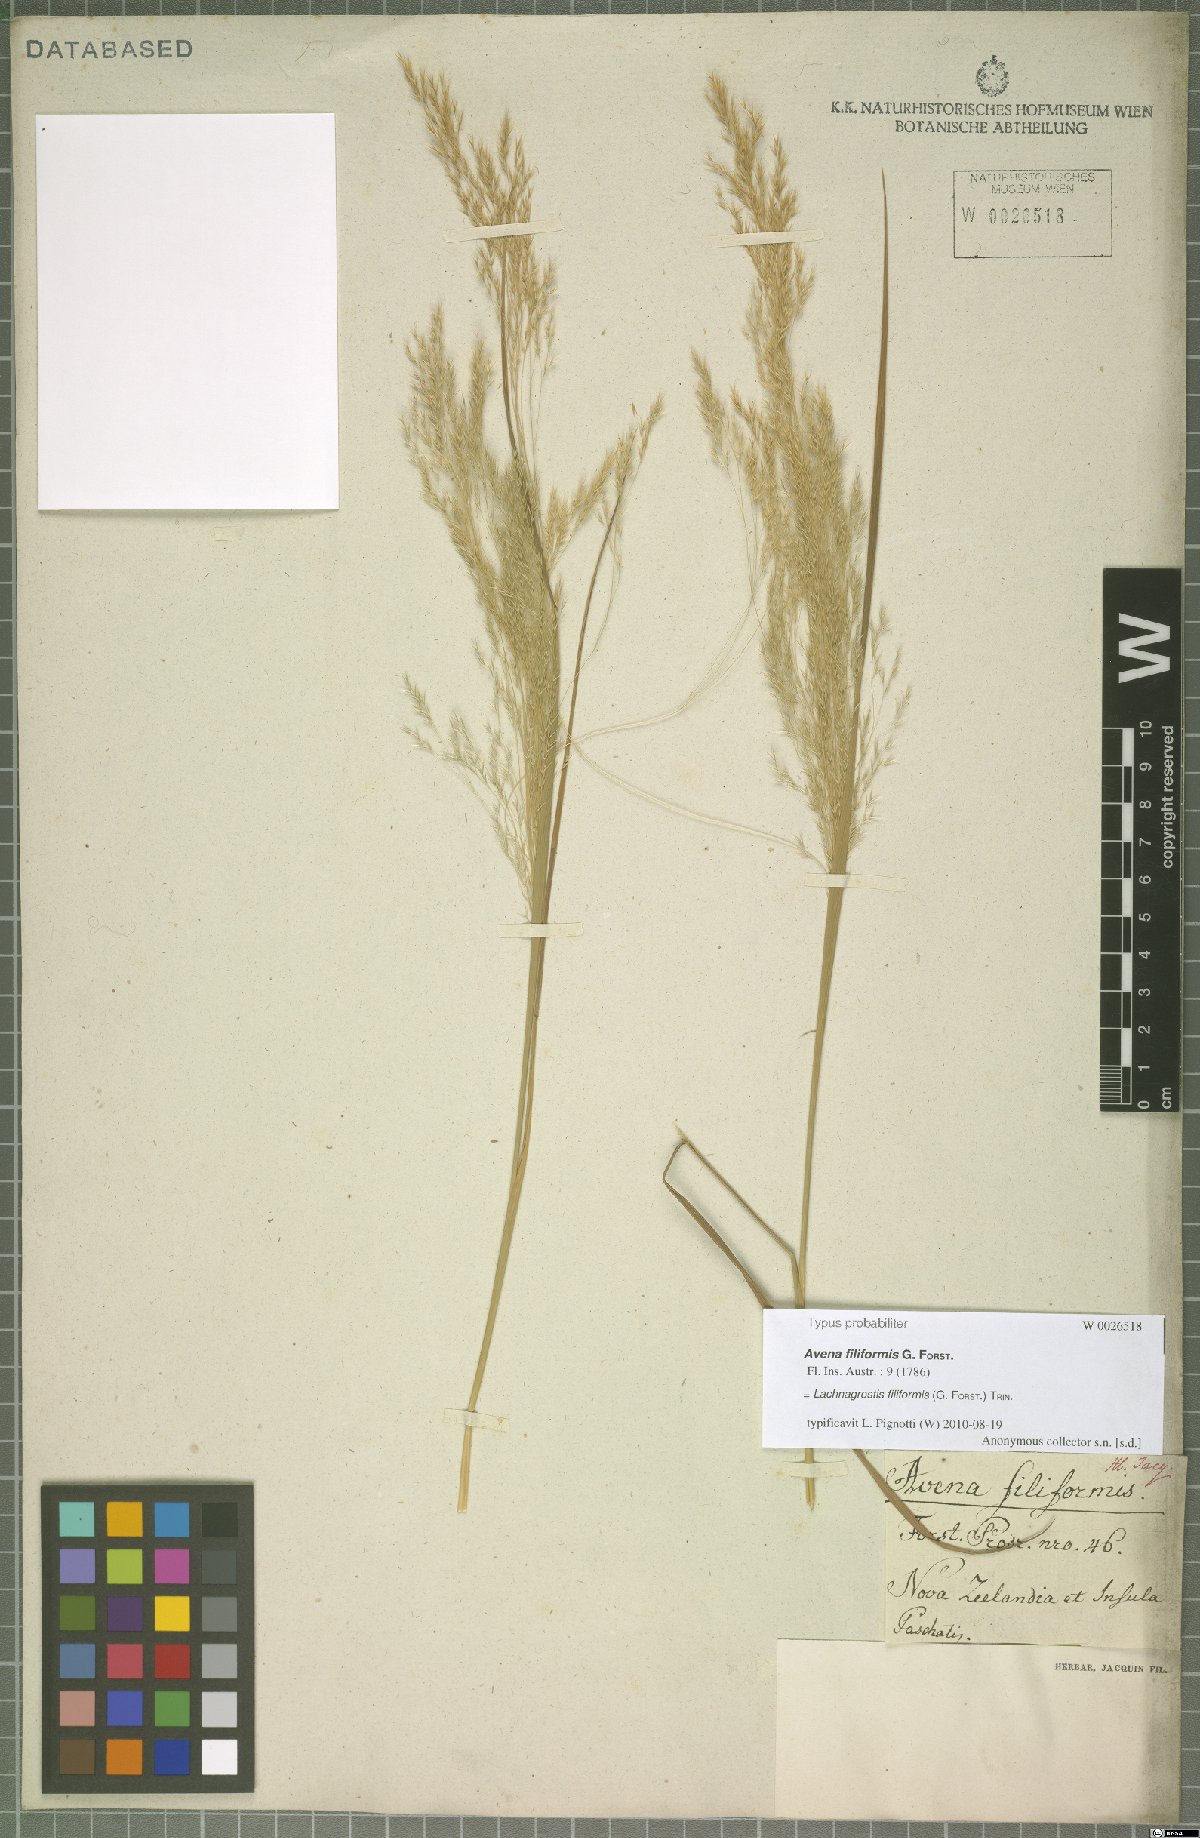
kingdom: Plantae
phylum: Tracheophyta
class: Liliopsida
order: Poales
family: Poaceae
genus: Lachnagrostis
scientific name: Lachnagrostis filiformis
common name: Bentgrass
